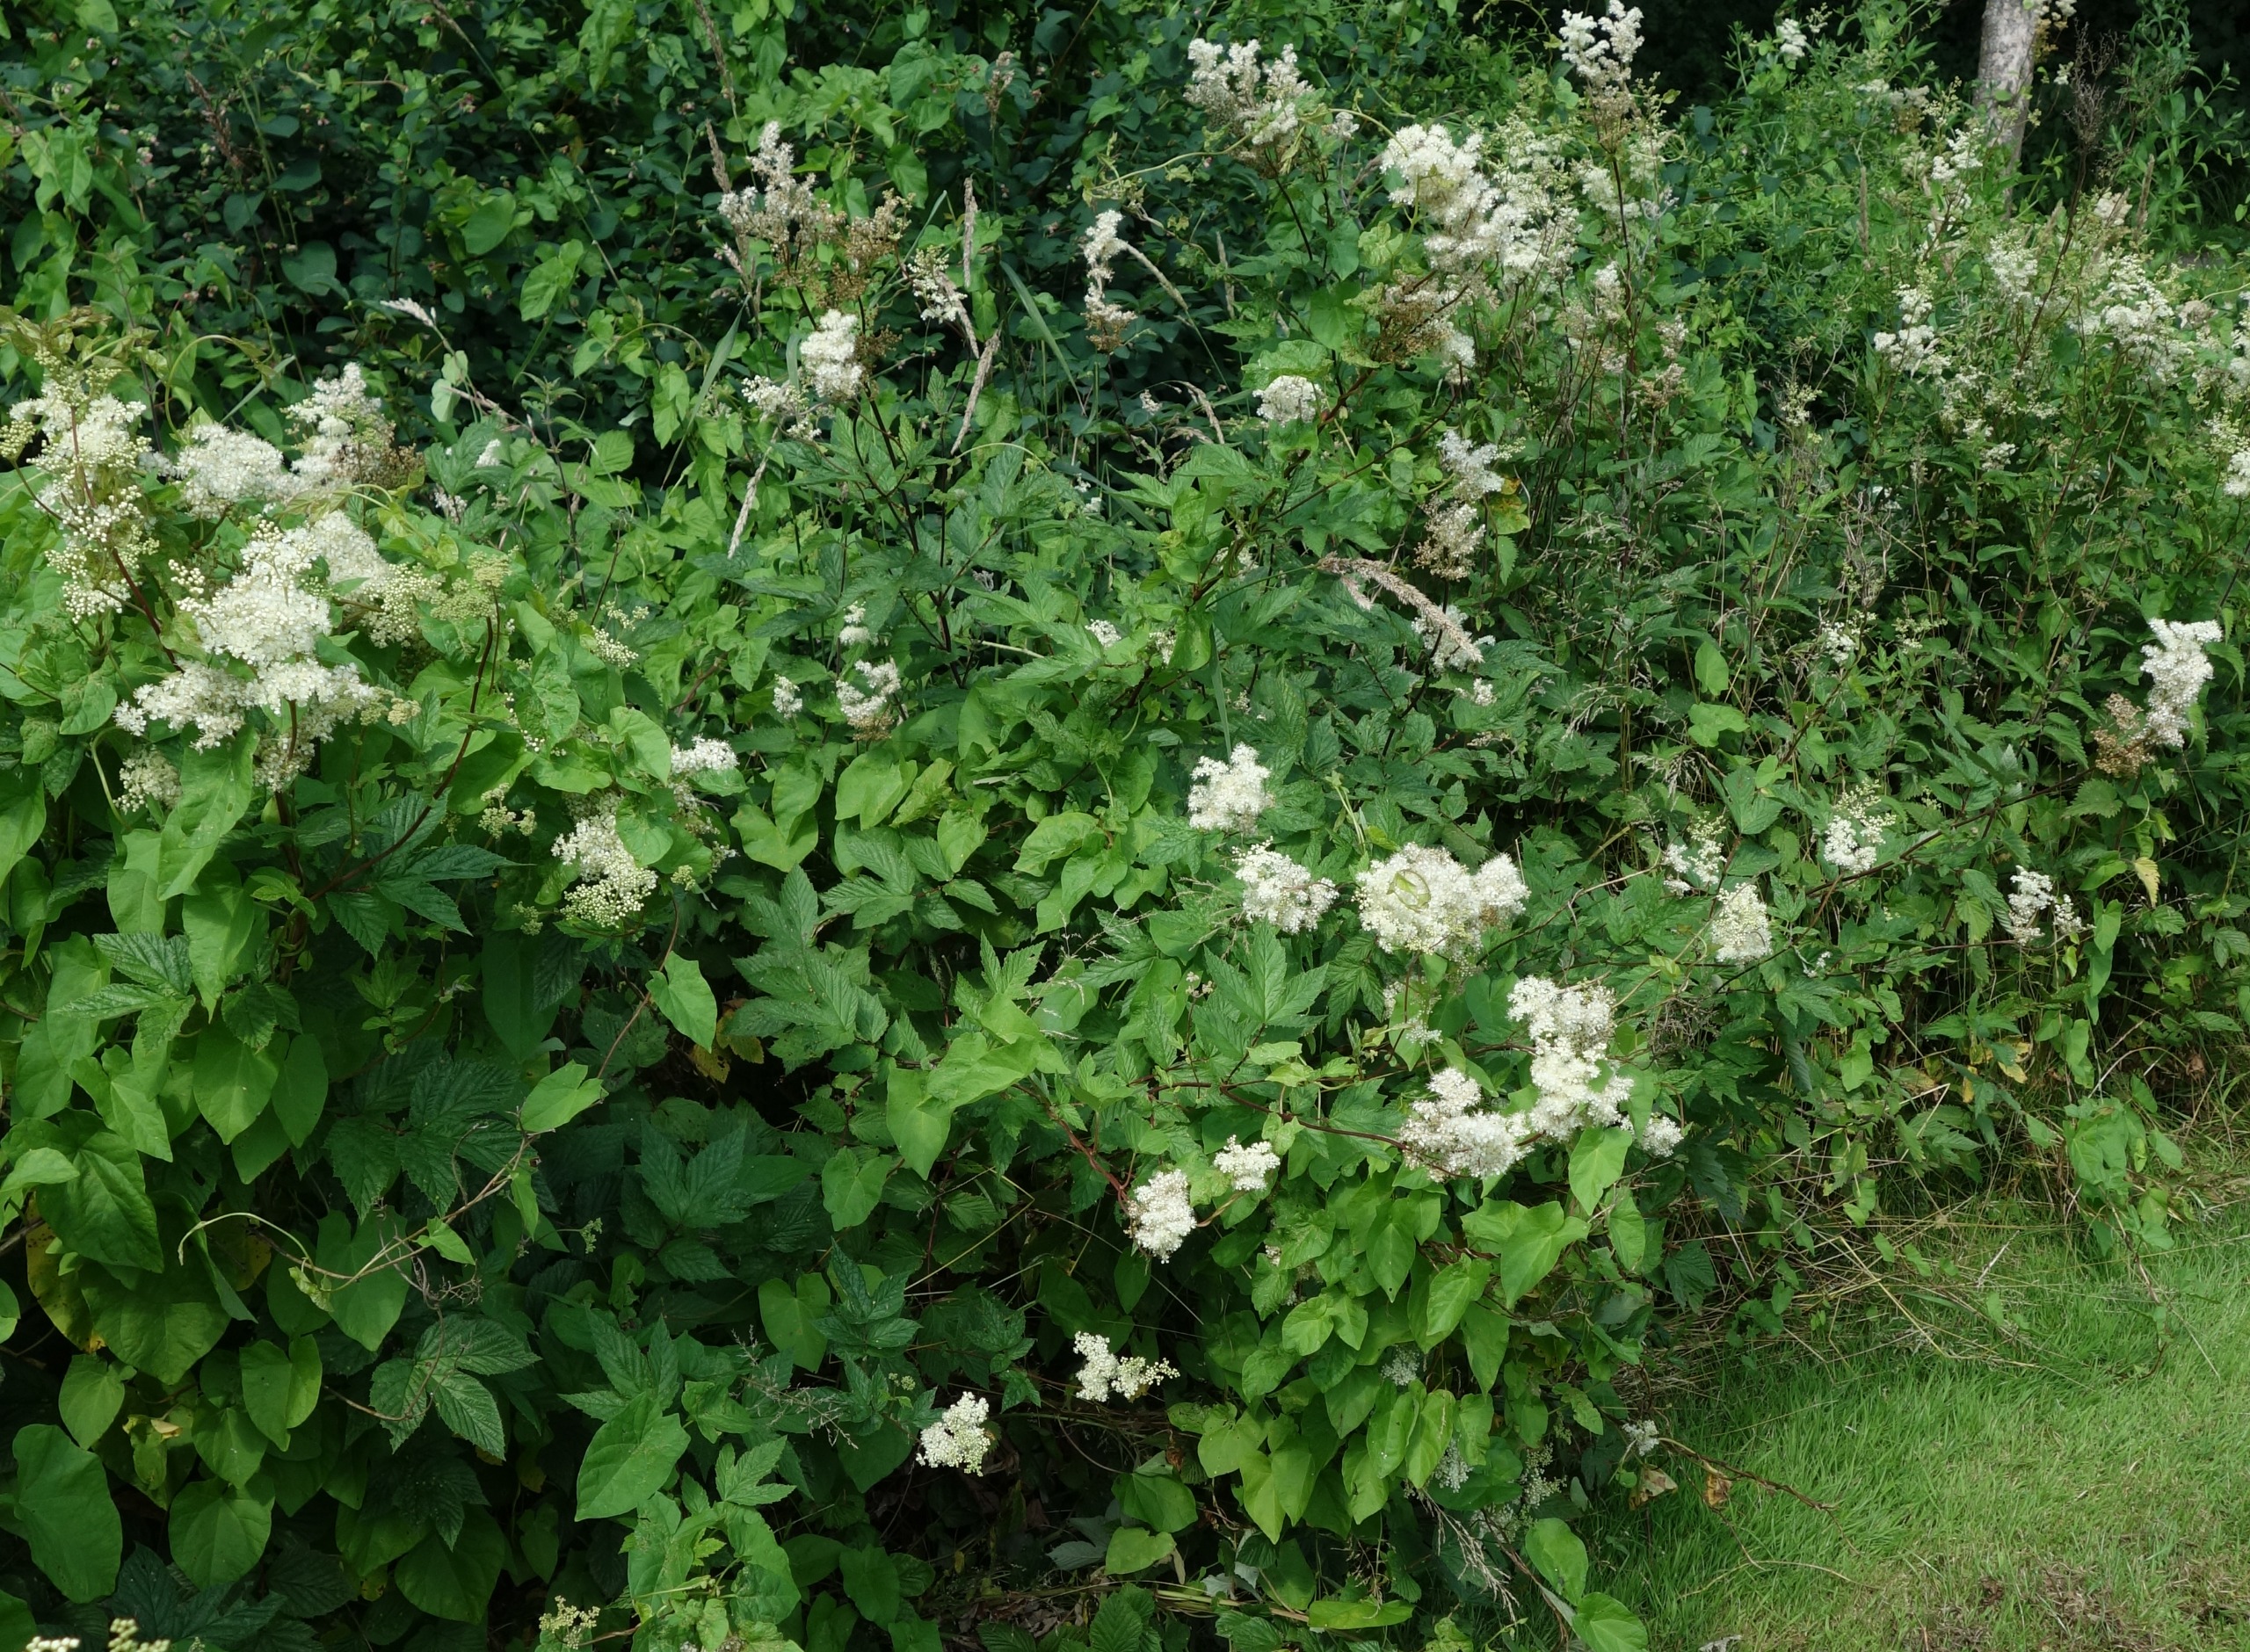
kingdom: Plantae
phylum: Tracheophyta
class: Magnoliopsida
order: Rosales
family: Rosaceae
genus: Filipendula
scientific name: Filipendula ulmaria
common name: Almindelig mjødurt
